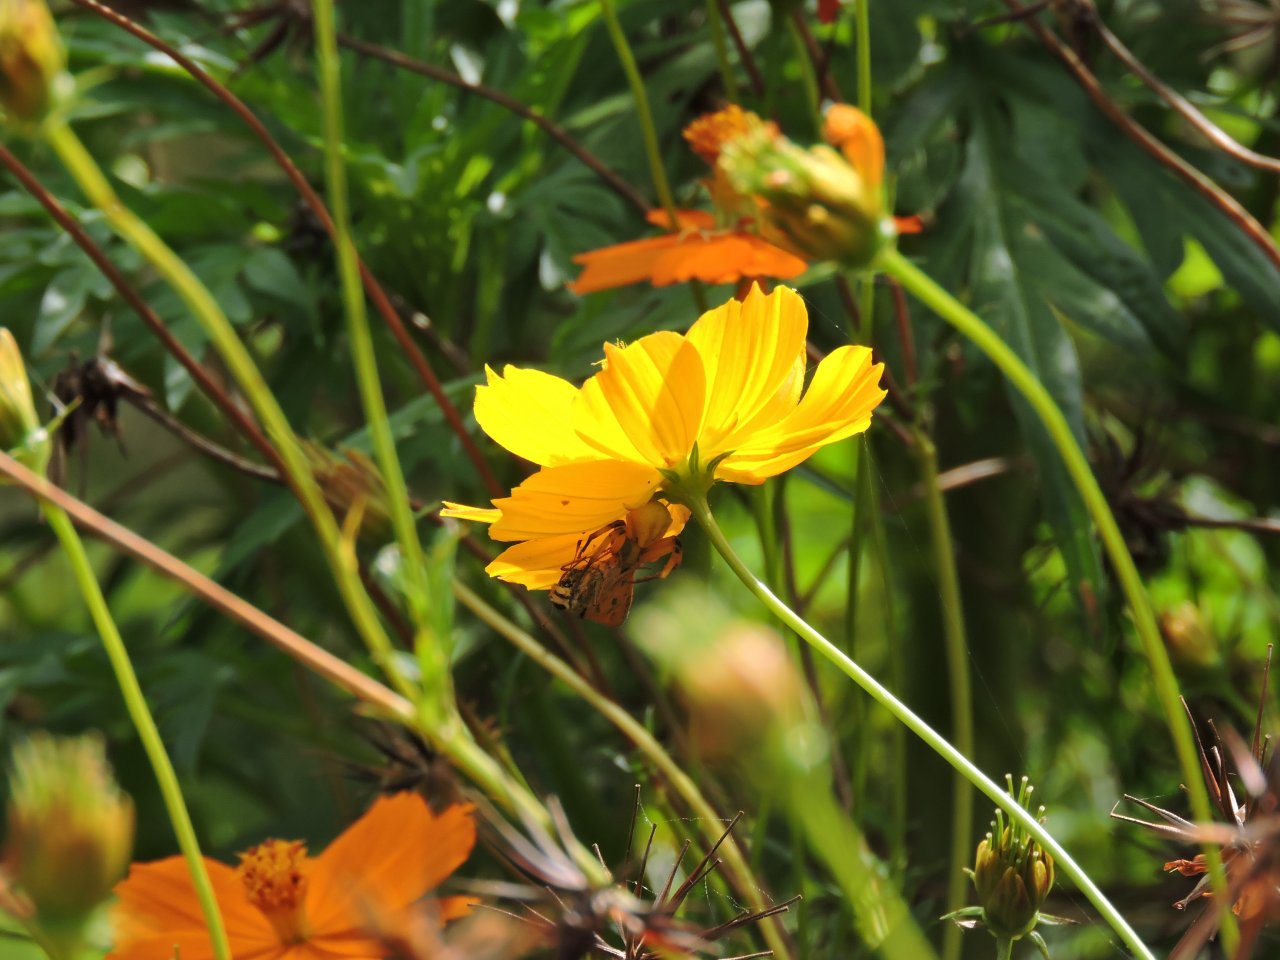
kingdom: Animalia
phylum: Arthropoda
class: Insecta
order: Lepidoptera
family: Hesperiidae
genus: Polites
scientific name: Polites vibex
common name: Whirlabout
